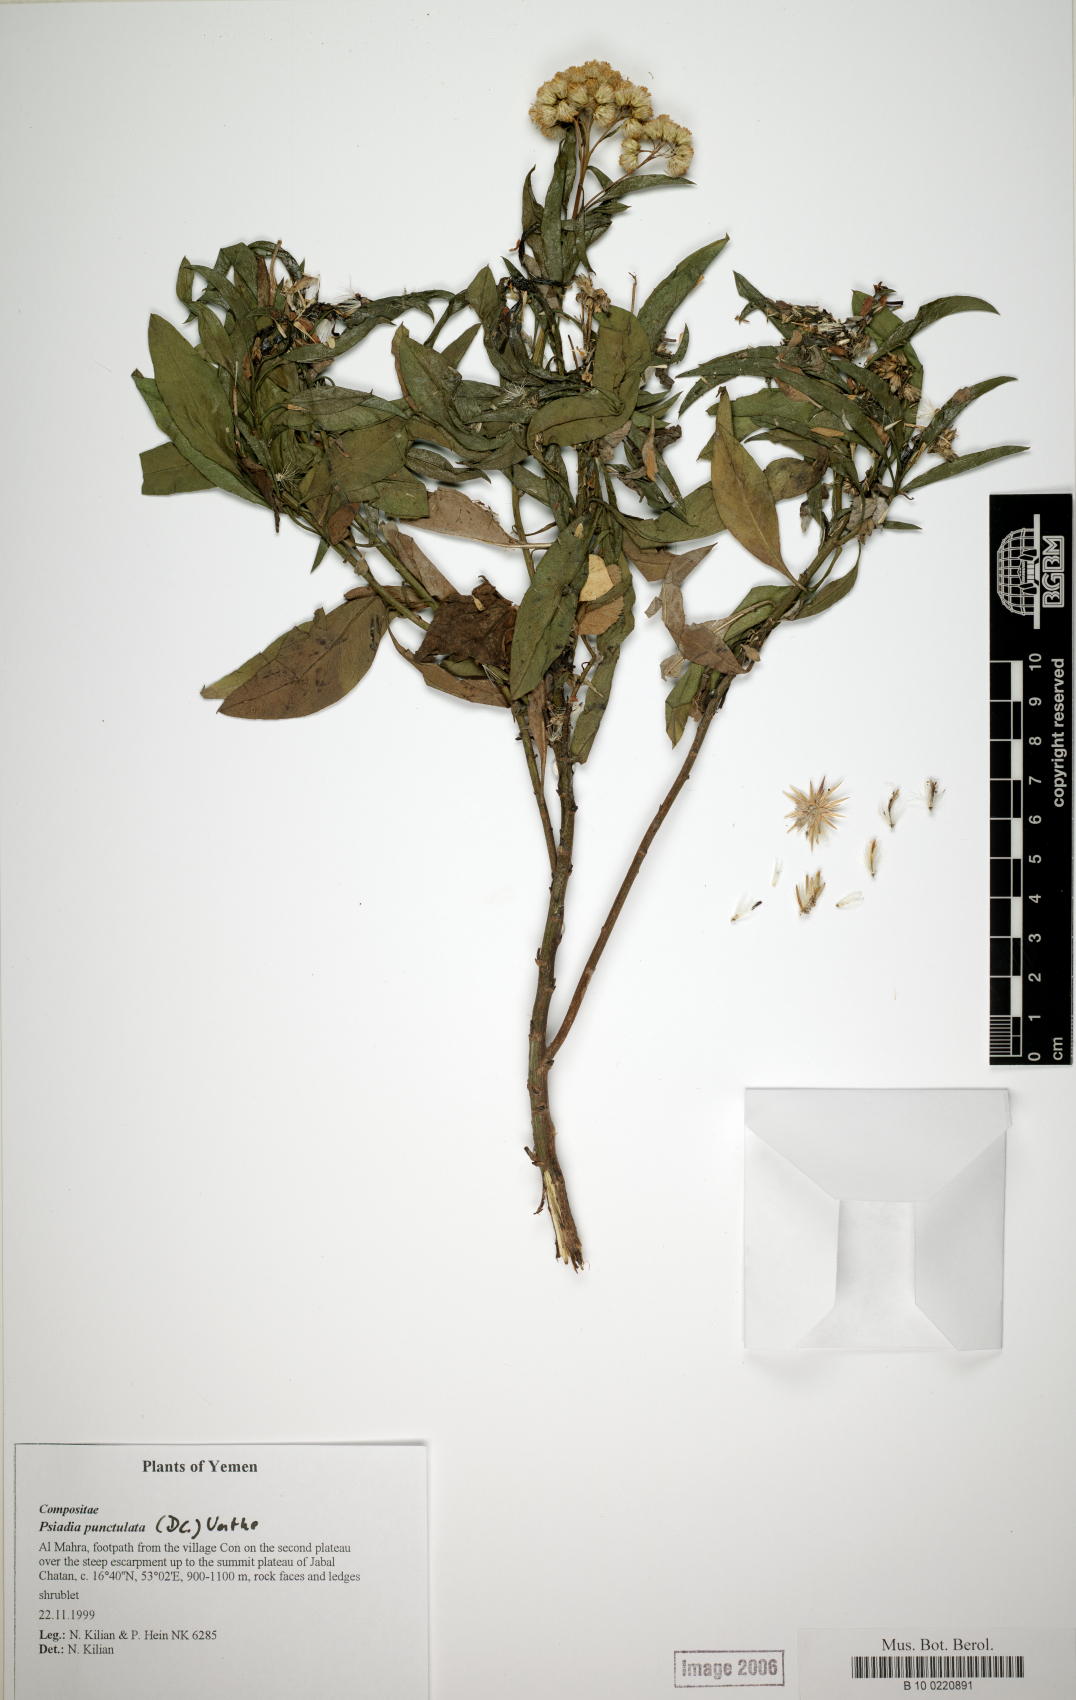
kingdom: Plantae
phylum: Tracheophyta
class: Magnoliopsida
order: Asterales
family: Asteraceae
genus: Psiadia
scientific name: Psiadia punctulata
